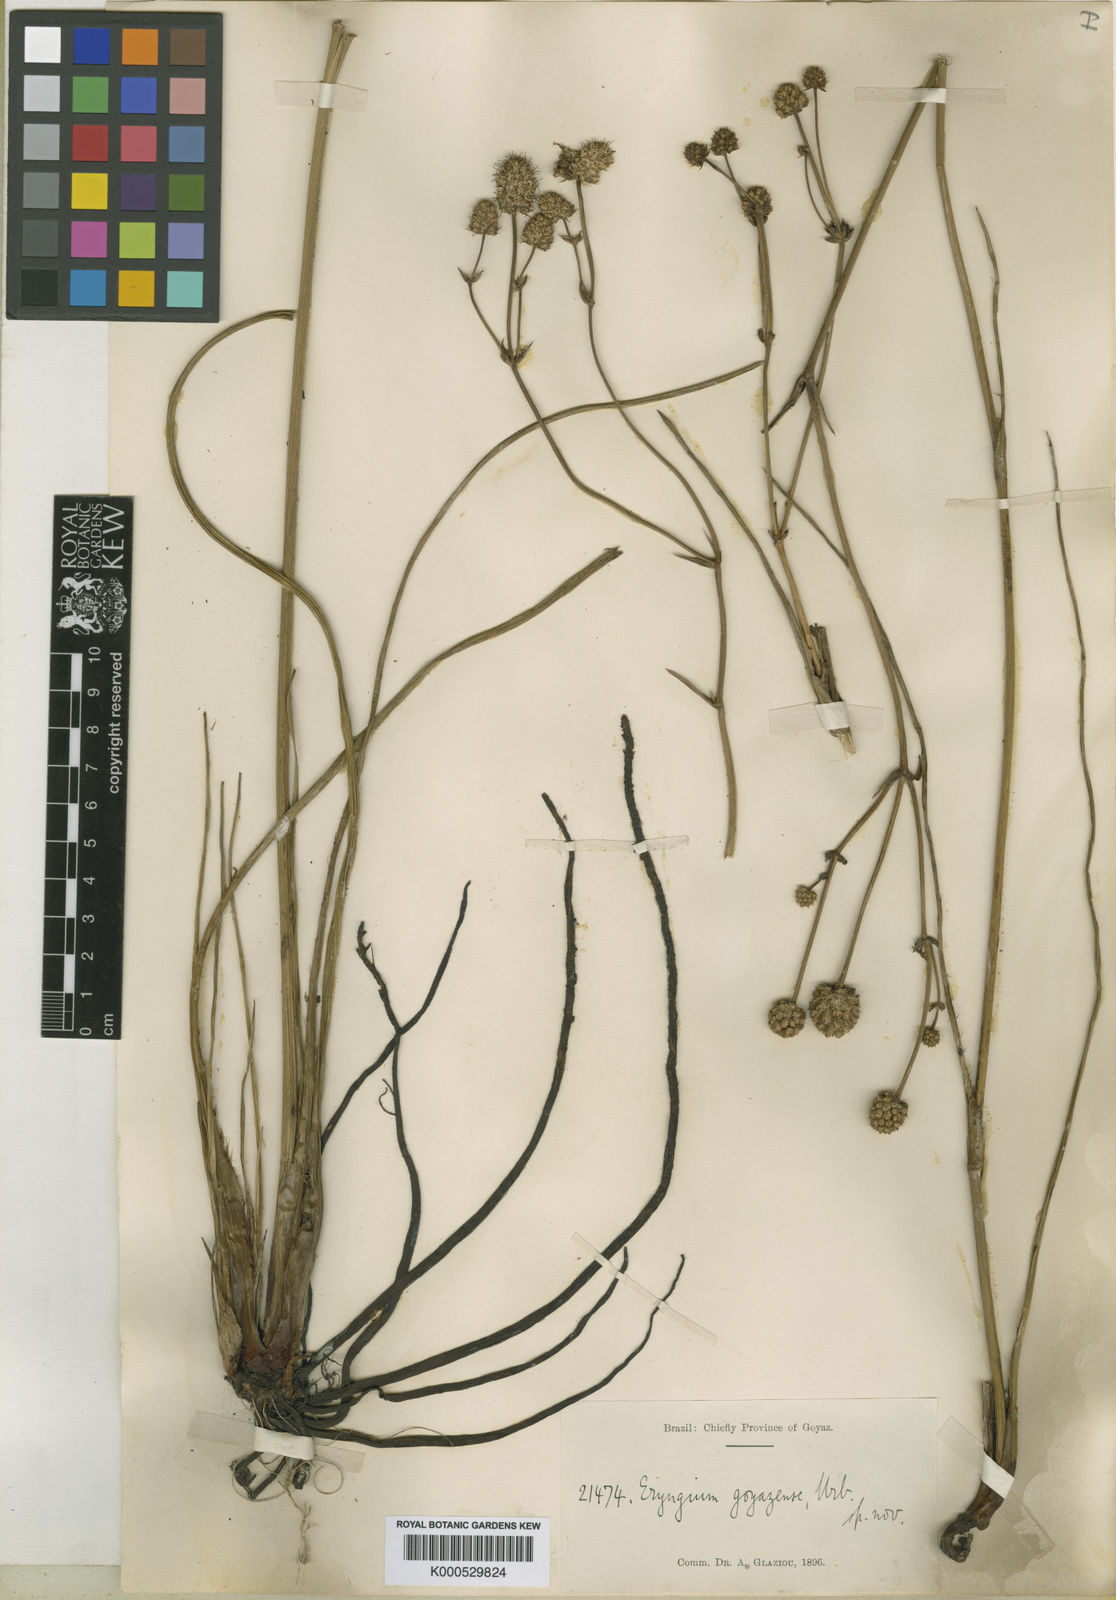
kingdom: Plantae
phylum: Tracheophyta
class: Magnoliopsida
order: Apiales
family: Apiaceae
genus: Eryngium
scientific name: Eryngium goyazense
